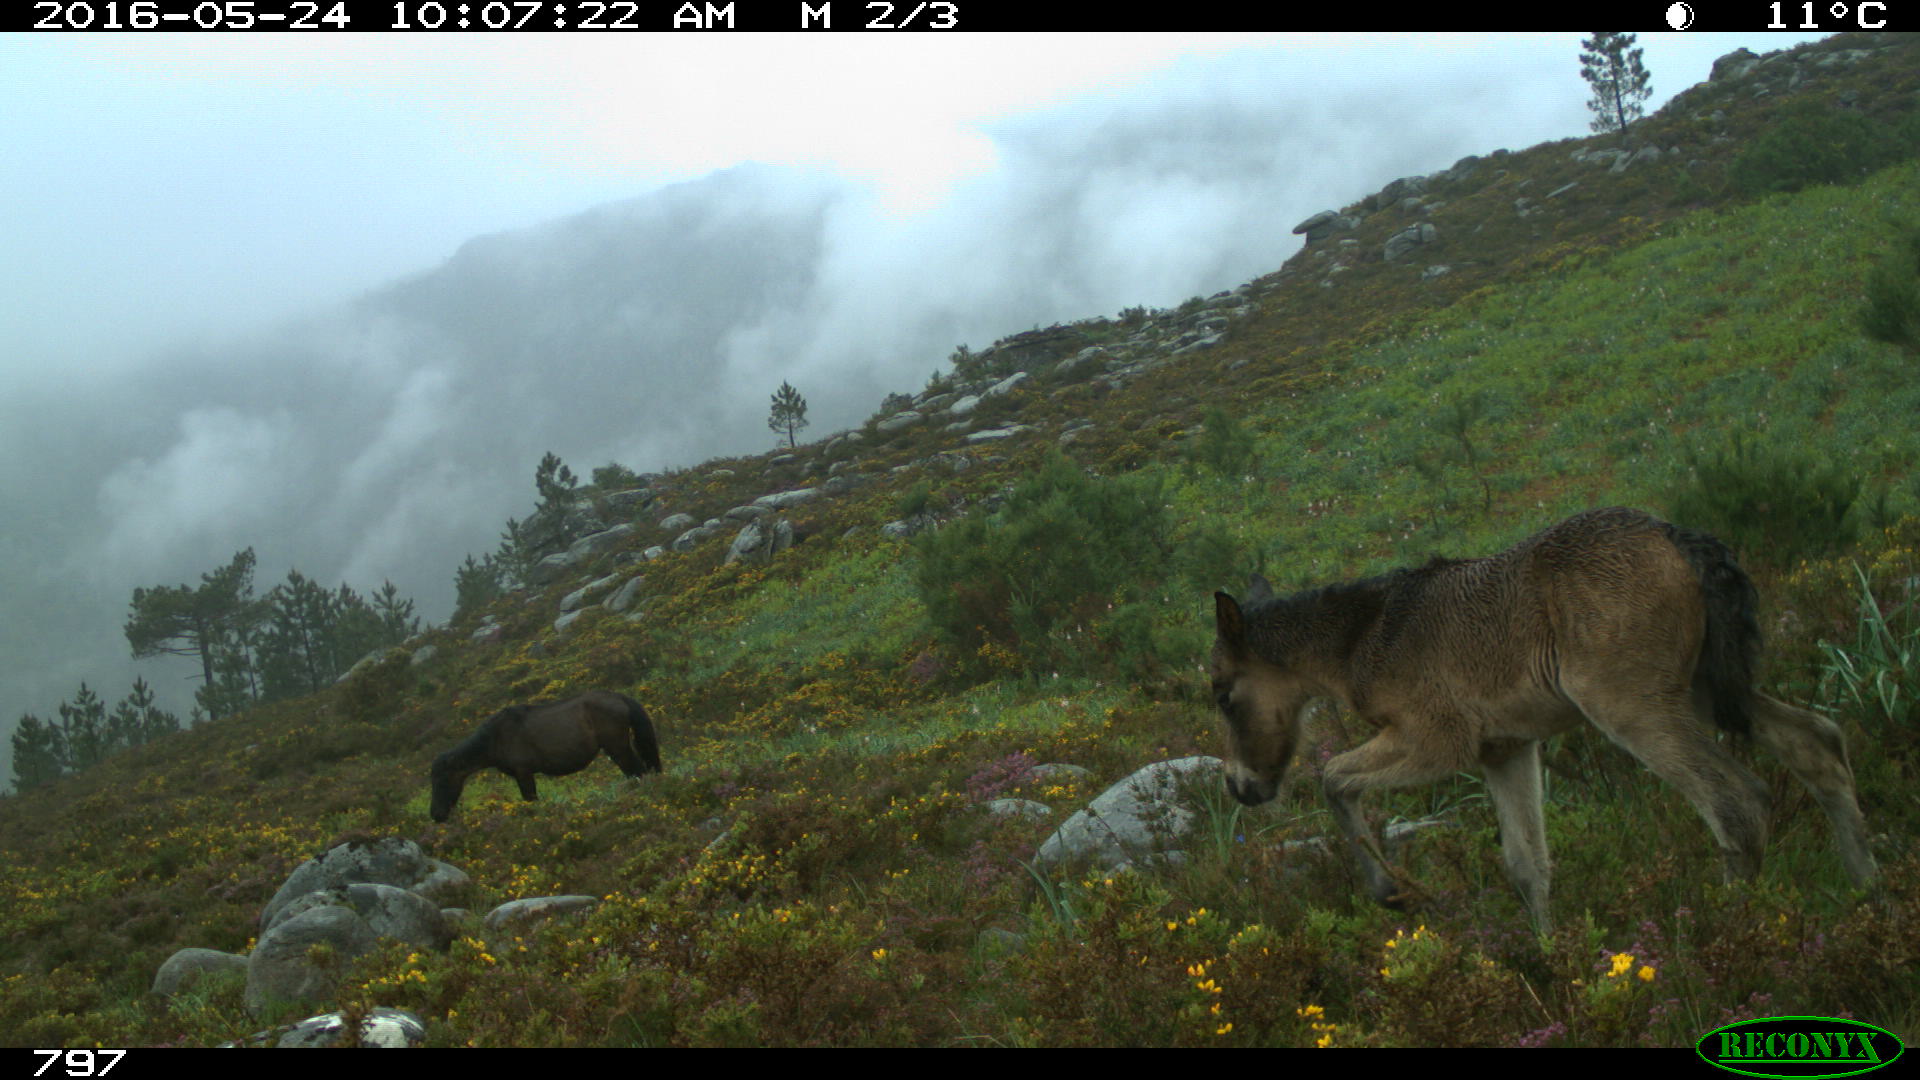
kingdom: Animalia
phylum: Chordata
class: Mammalia
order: Perissodactyla
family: Equidae
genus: Equus
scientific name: Equus caballus
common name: Horse
